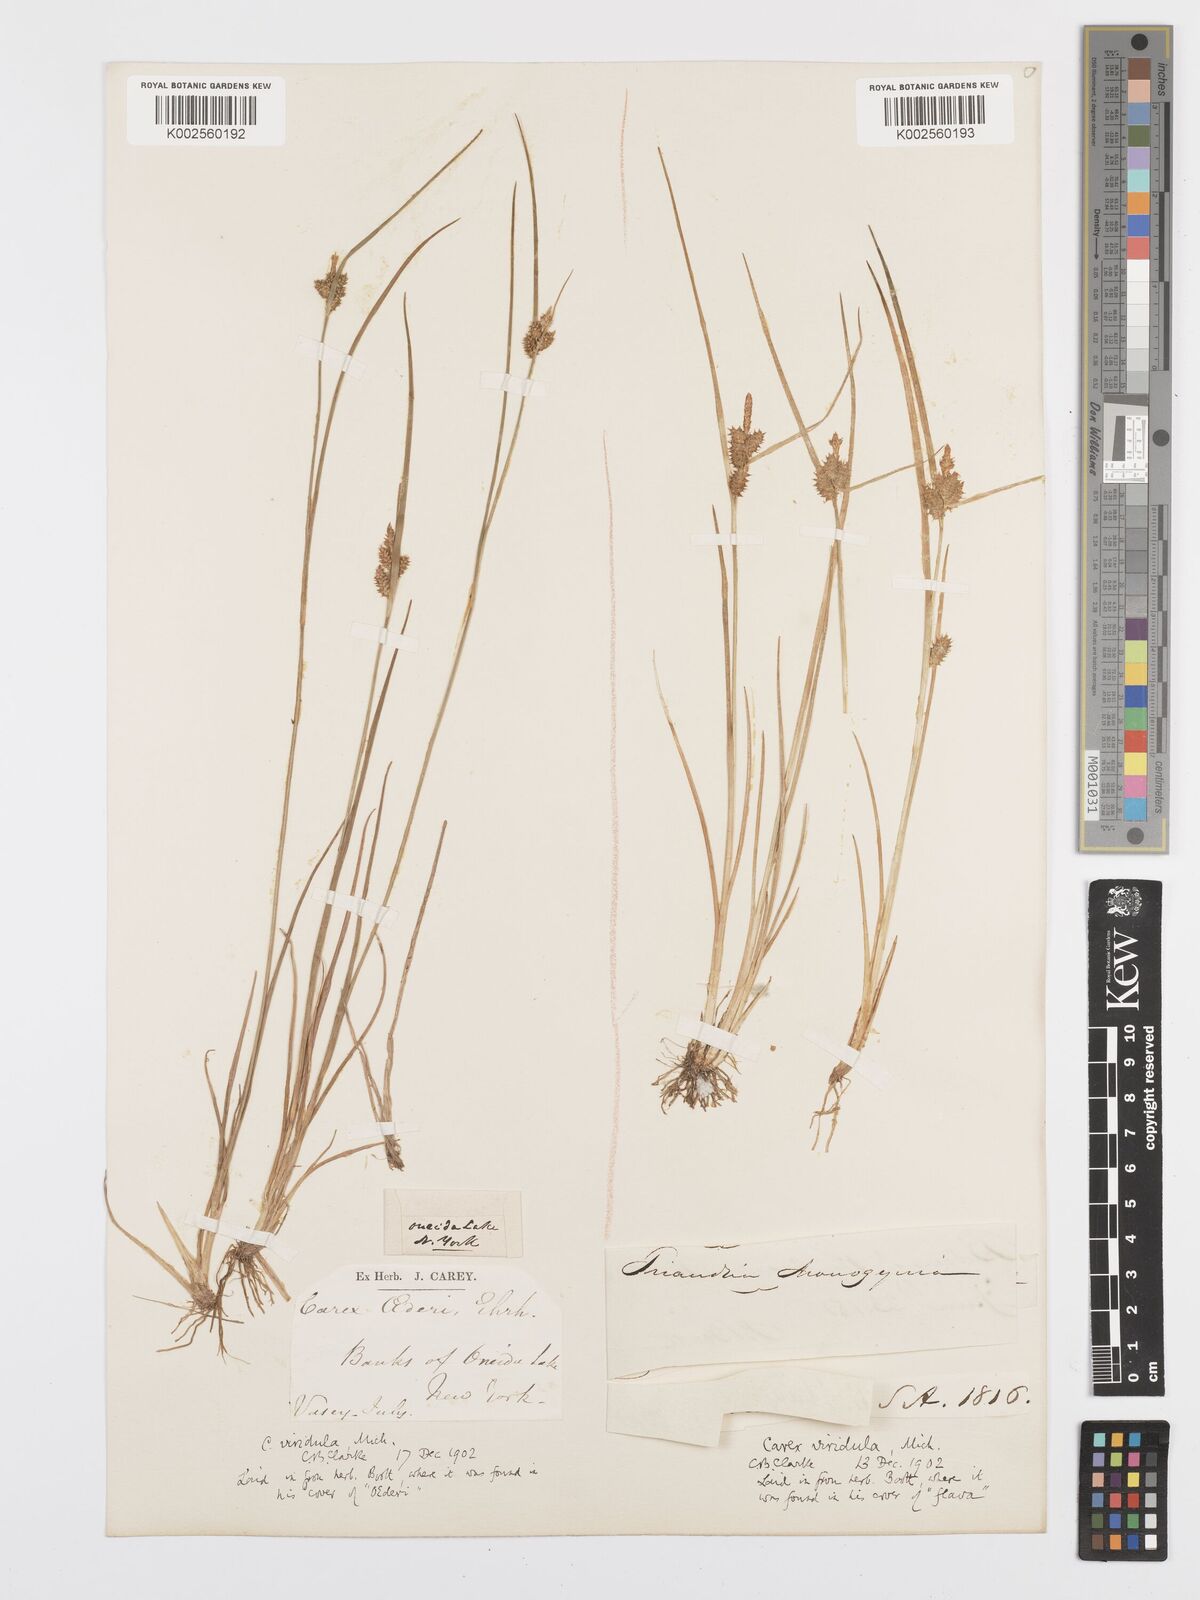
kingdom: Plantae
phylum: Tracheophyta
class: Liliopsida
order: Poales
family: Cyperaceae
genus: Carex
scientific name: Carex oederi
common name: Common & small-fruited yellow-sedge
